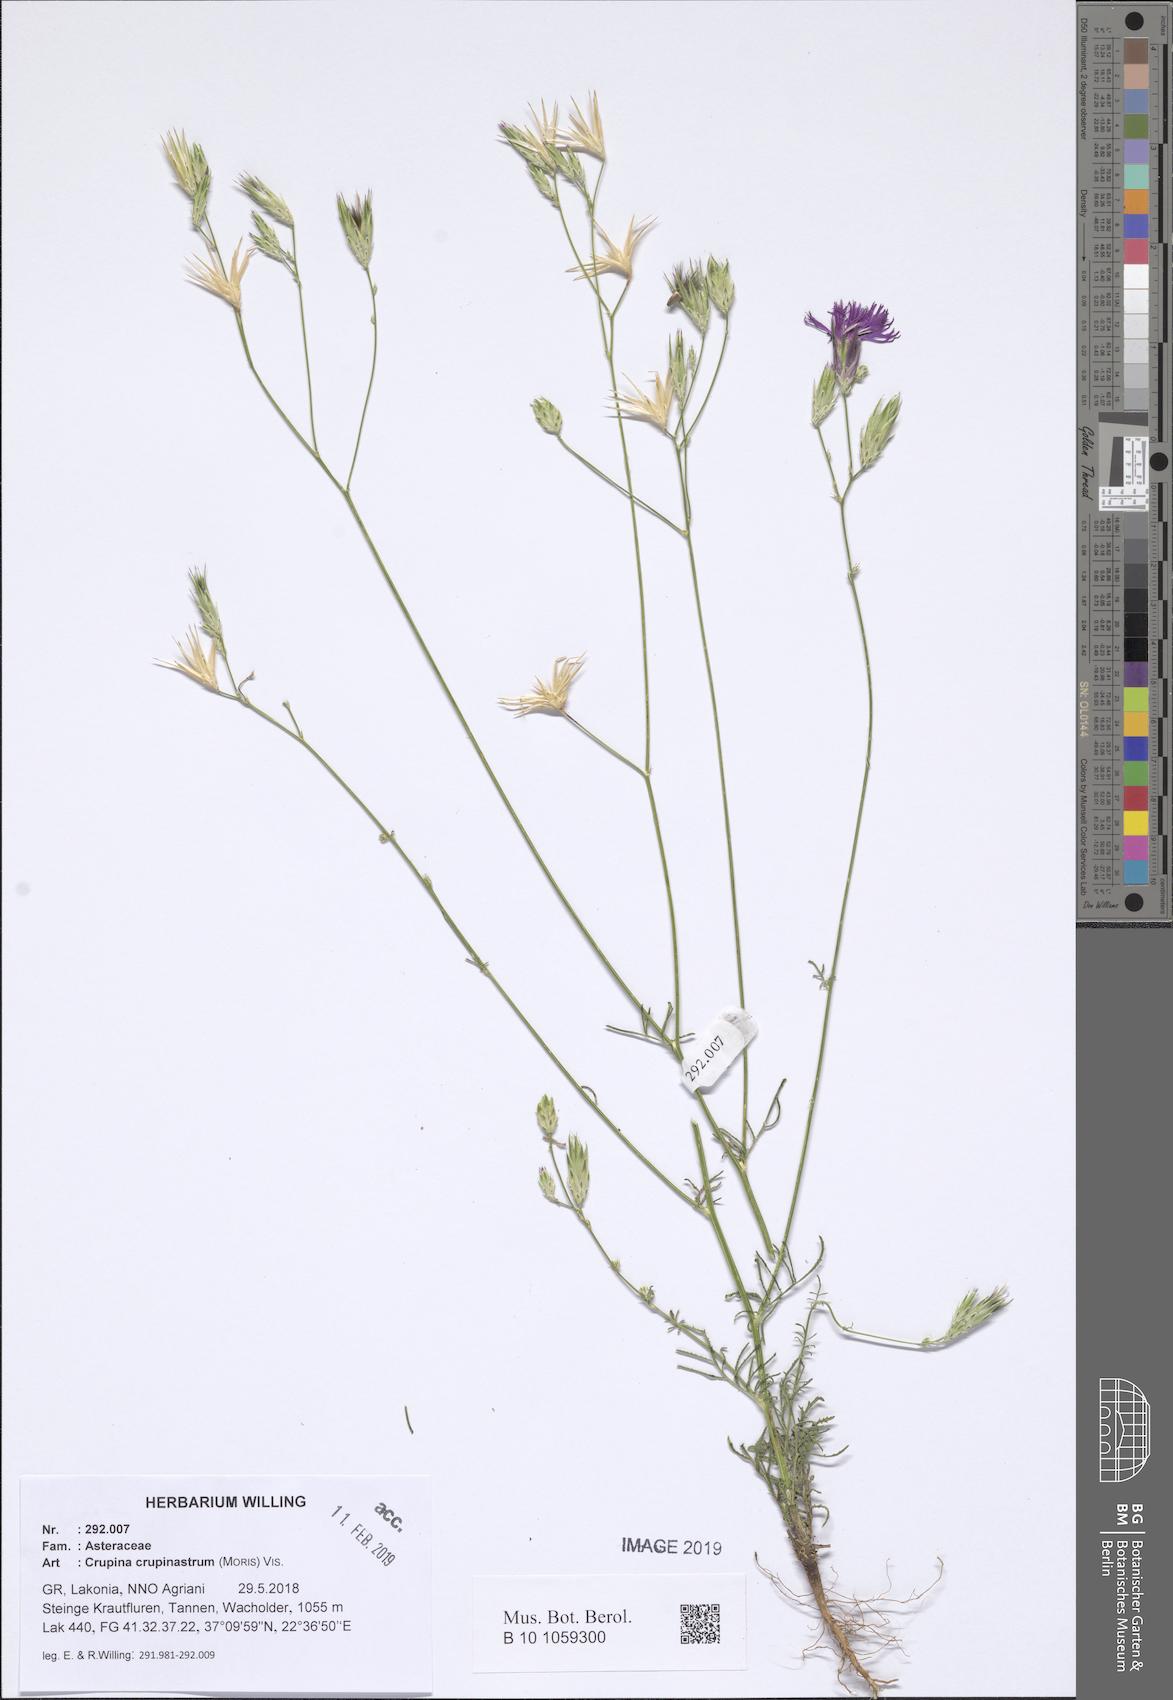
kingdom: Plantae
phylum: Tracheophyta
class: Magnoliopsida
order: Asterales
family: Asteraceae
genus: Crupina
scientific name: Crupina crupinastrum
